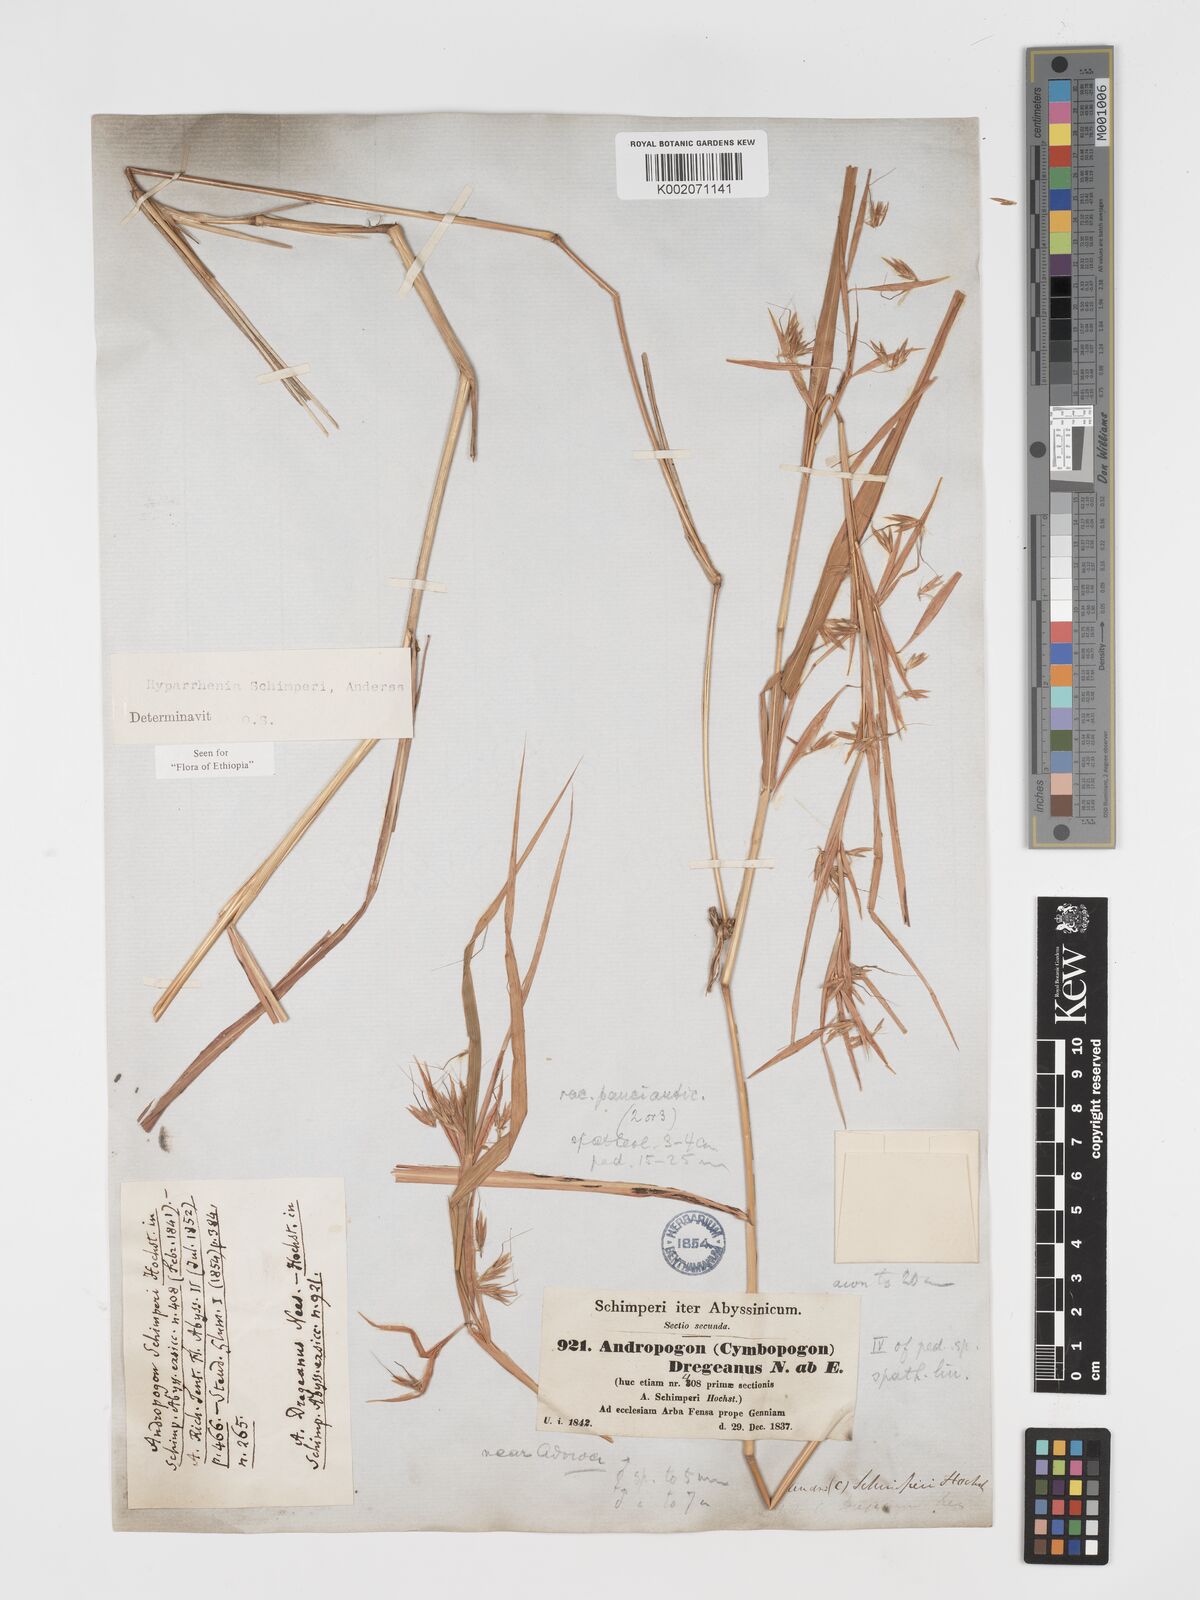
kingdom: Plantae
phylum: Tracheophyta
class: Liliopsida
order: Poales
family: Poaceae
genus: Hyparrhenia
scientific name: Hyparrhenia schimperi
